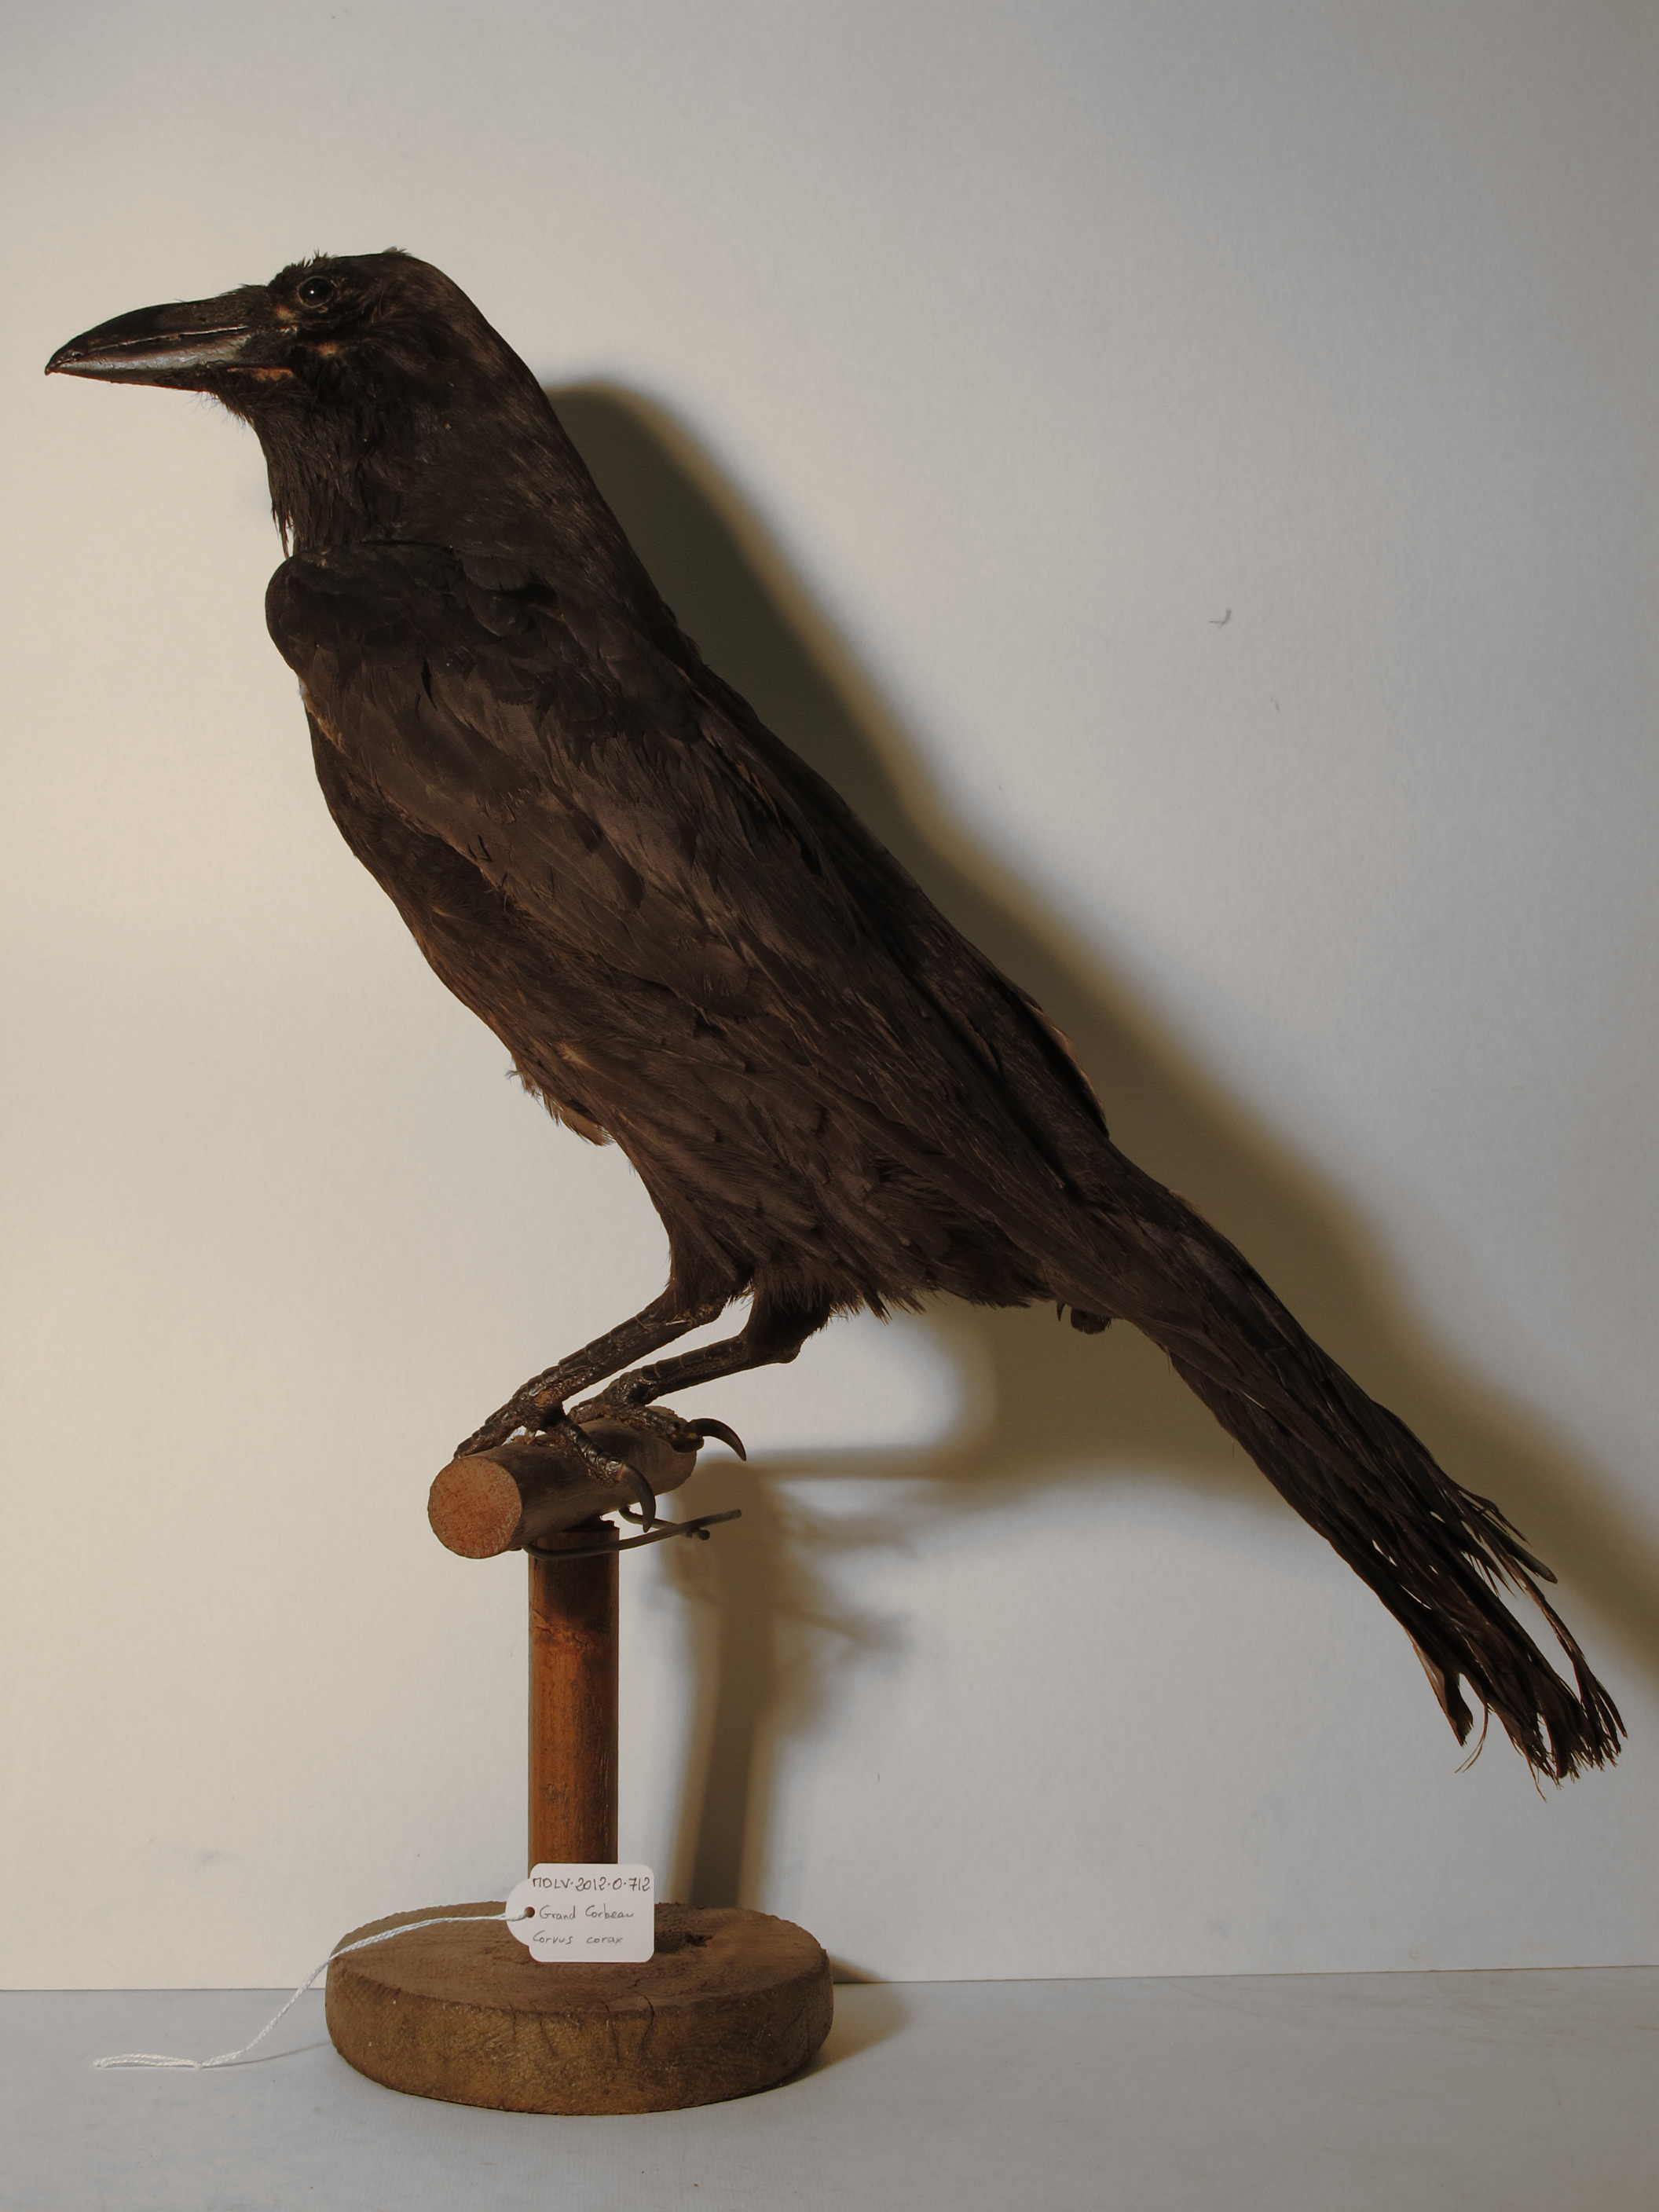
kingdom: Animalia
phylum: Chordata
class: Aves
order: Passeriformes
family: Corvidae
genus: Corvus
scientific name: Corvus corax
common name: Common Raven
